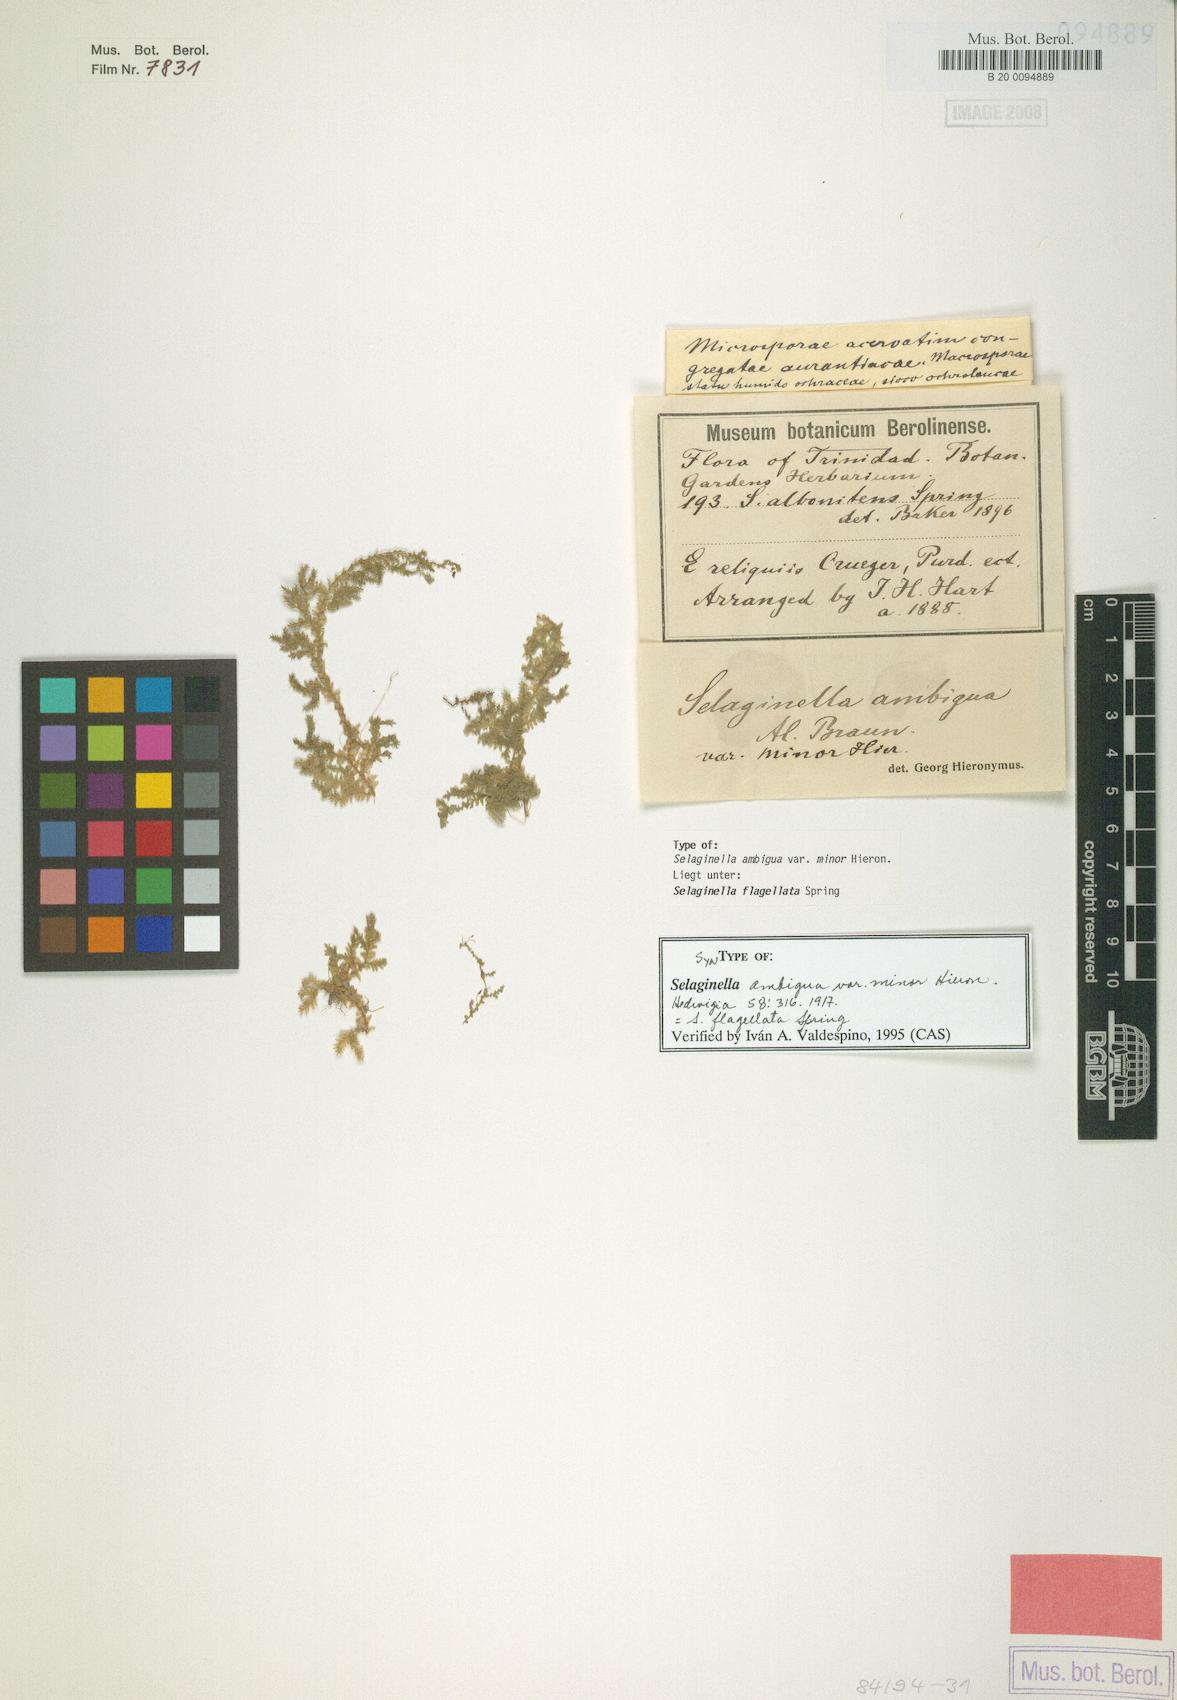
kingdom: Plantae
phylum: Tracheophyta
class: Lycopodiopsida
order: Selaginellales
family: Selaginellaceae
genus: Selaginella
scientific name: Selaginella flagellata
